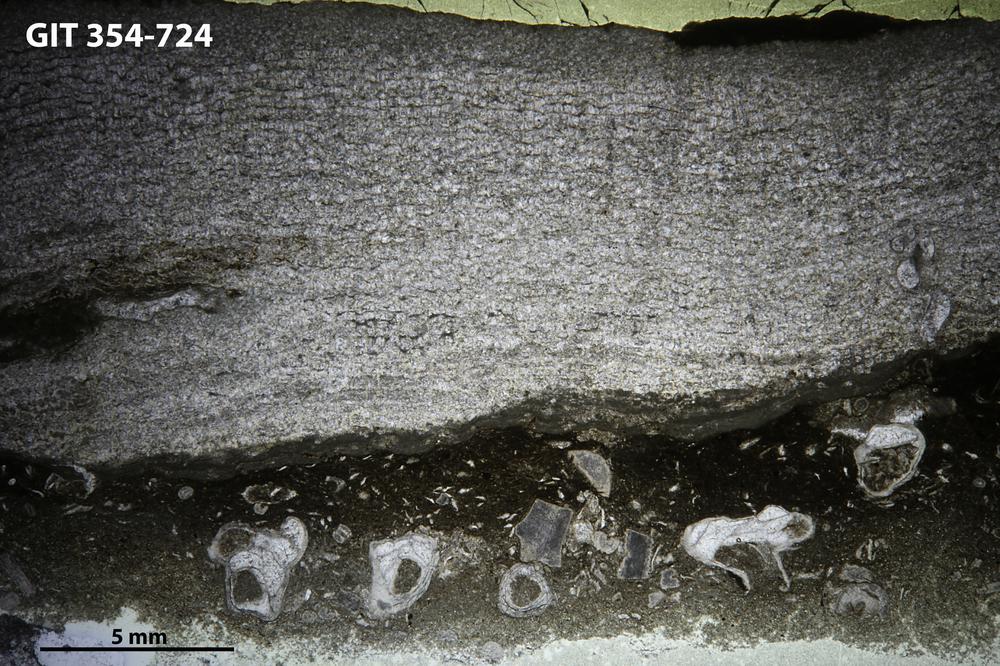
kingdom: Animalia
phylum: Porifera
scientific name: Porifera
